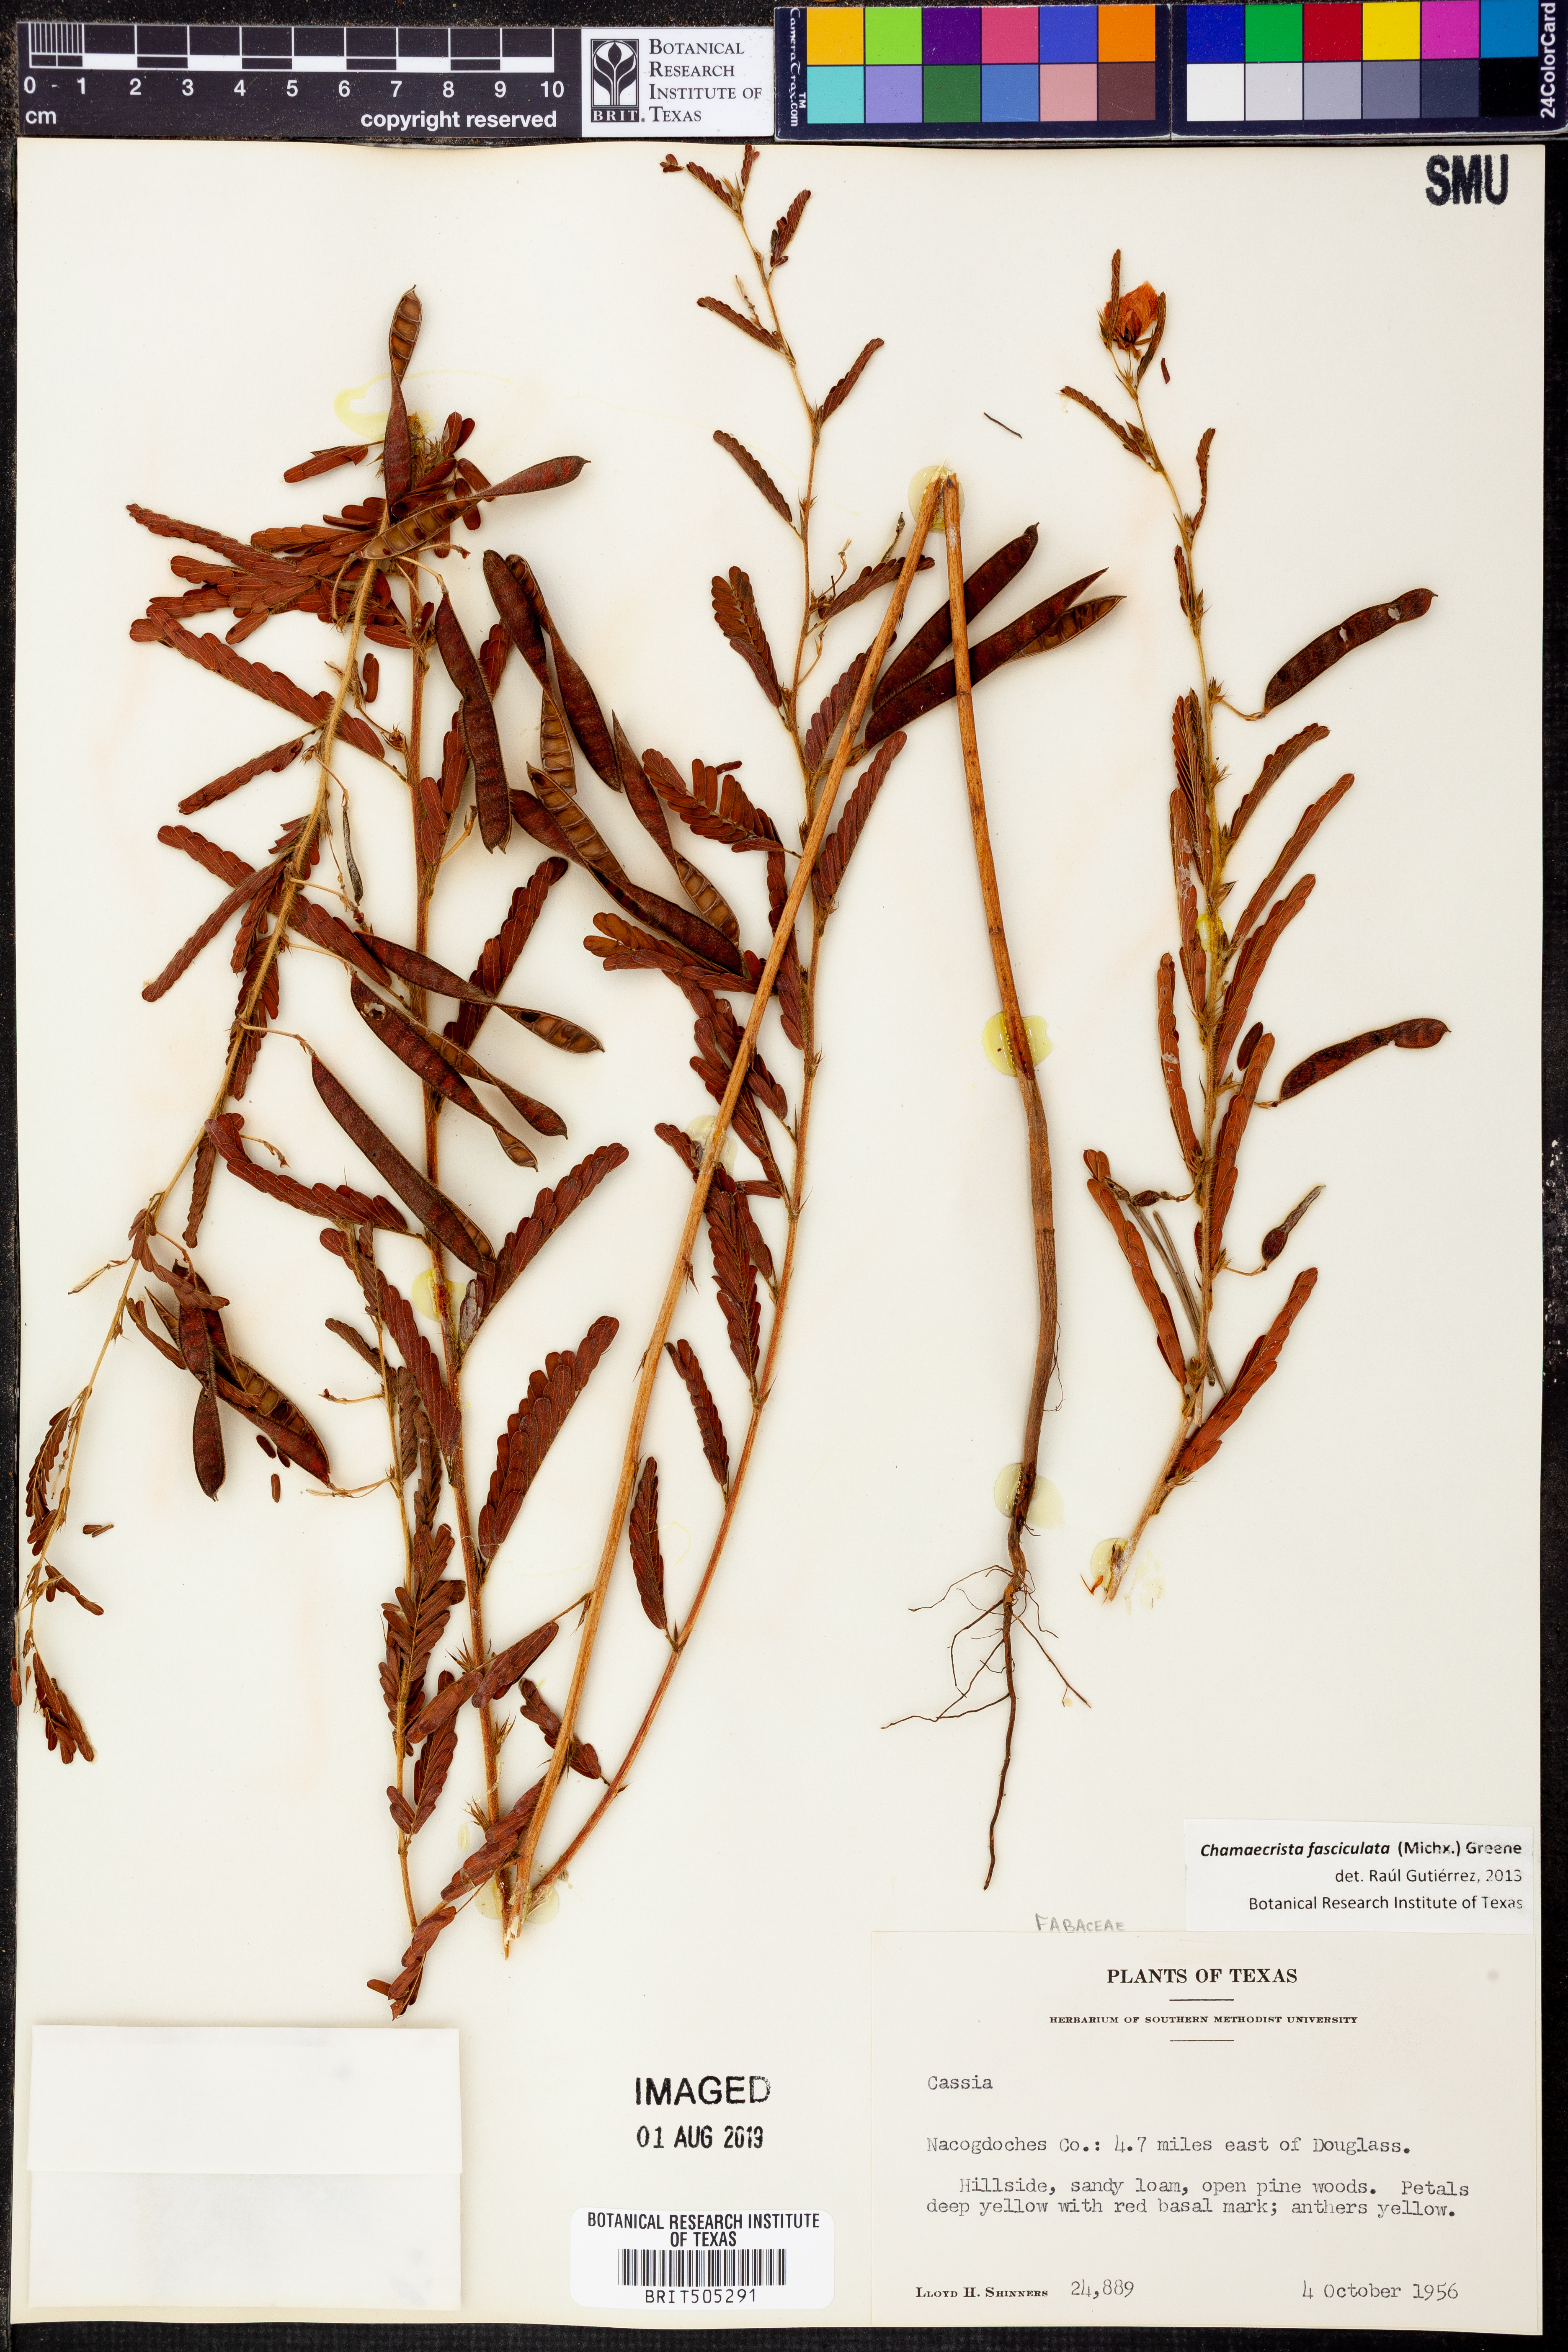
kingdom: Plantae
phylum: Tracheophyta
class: Magnoliopsida
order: Fabales
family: Fabaceae
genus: Chamaecrista
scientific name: Chamaecrista fasciculata
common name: Golden cassia
